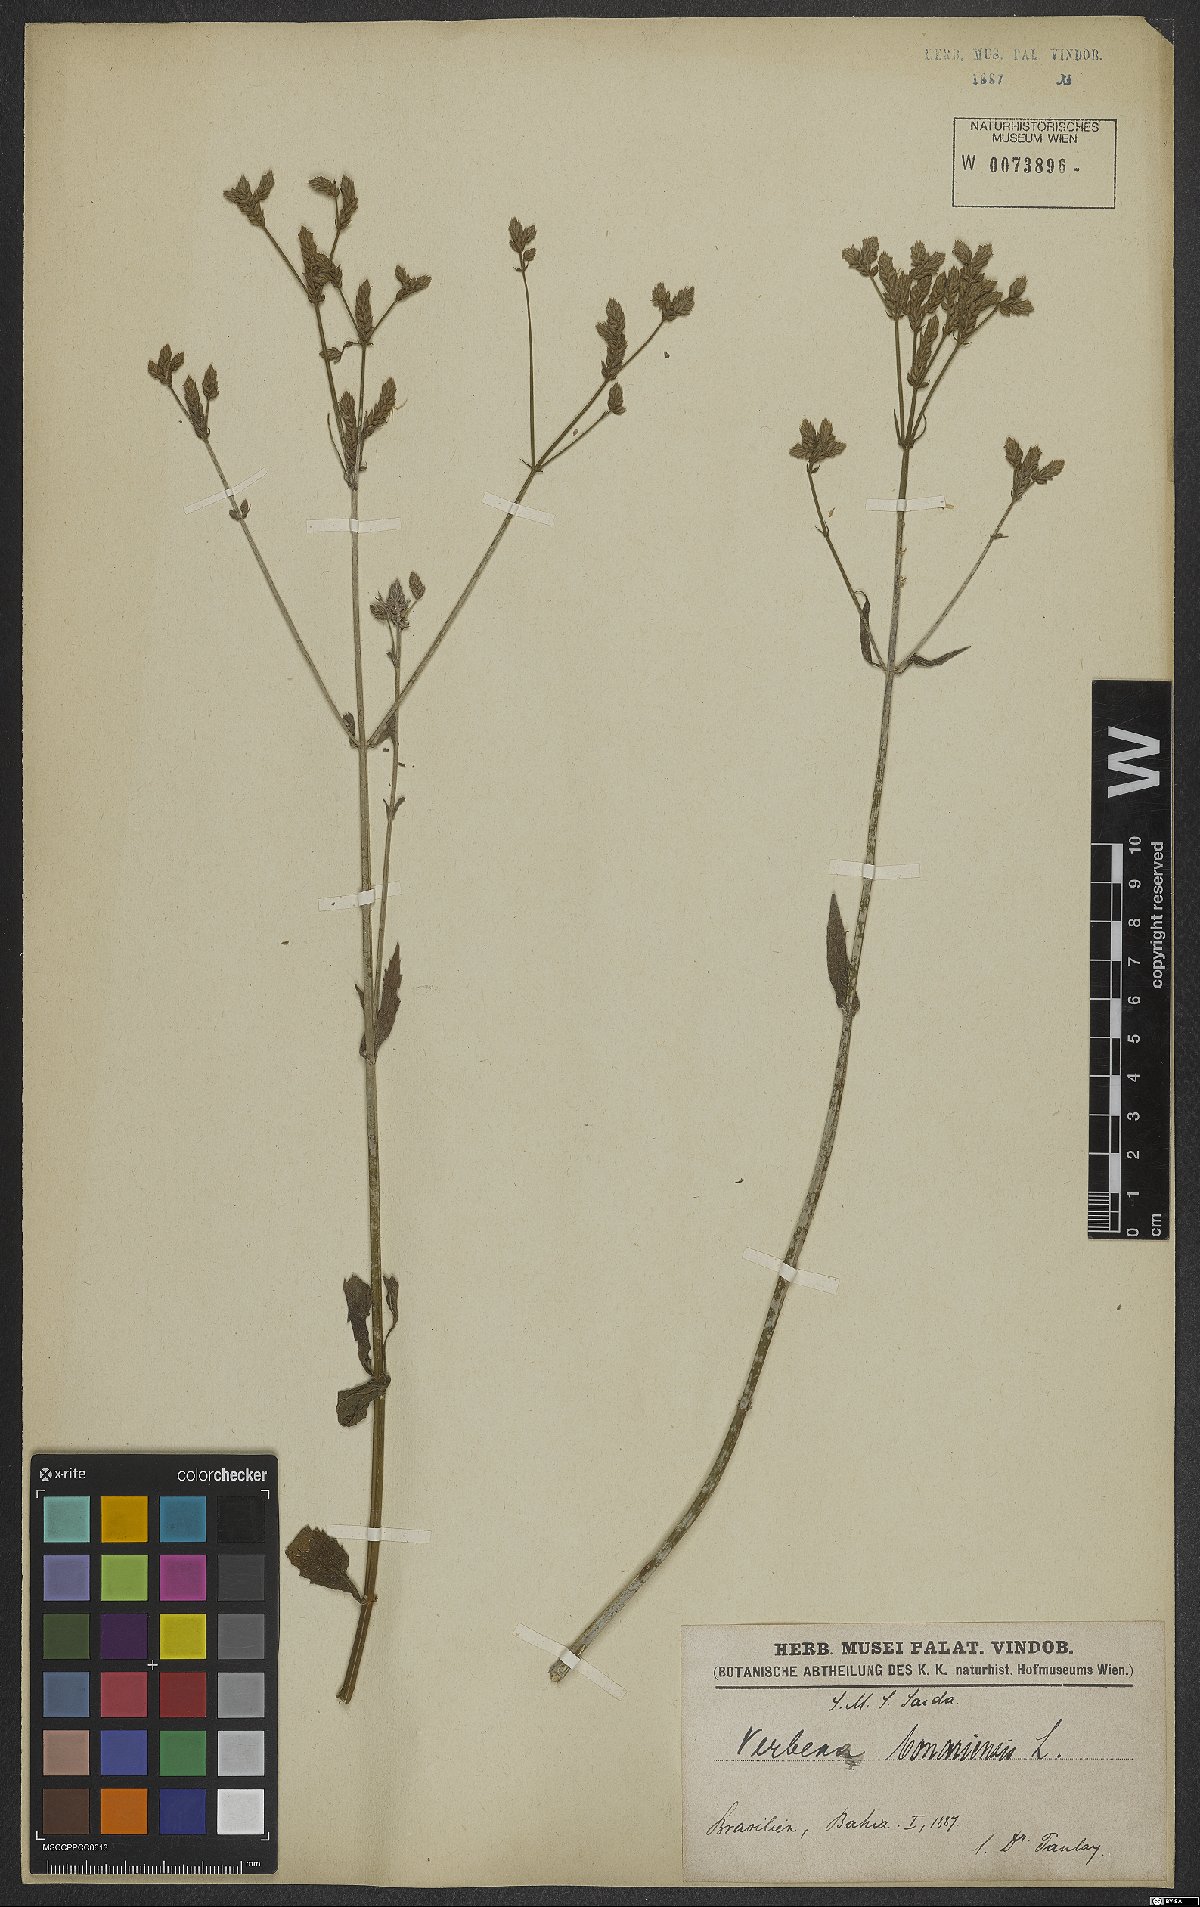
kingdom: Plantae
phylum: Tracheophyta
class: Magnoliopsida
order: Lamiales
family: Verbenaceae
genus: Verbena
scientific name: Verbena bonariensis
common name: Purpletop vervain
